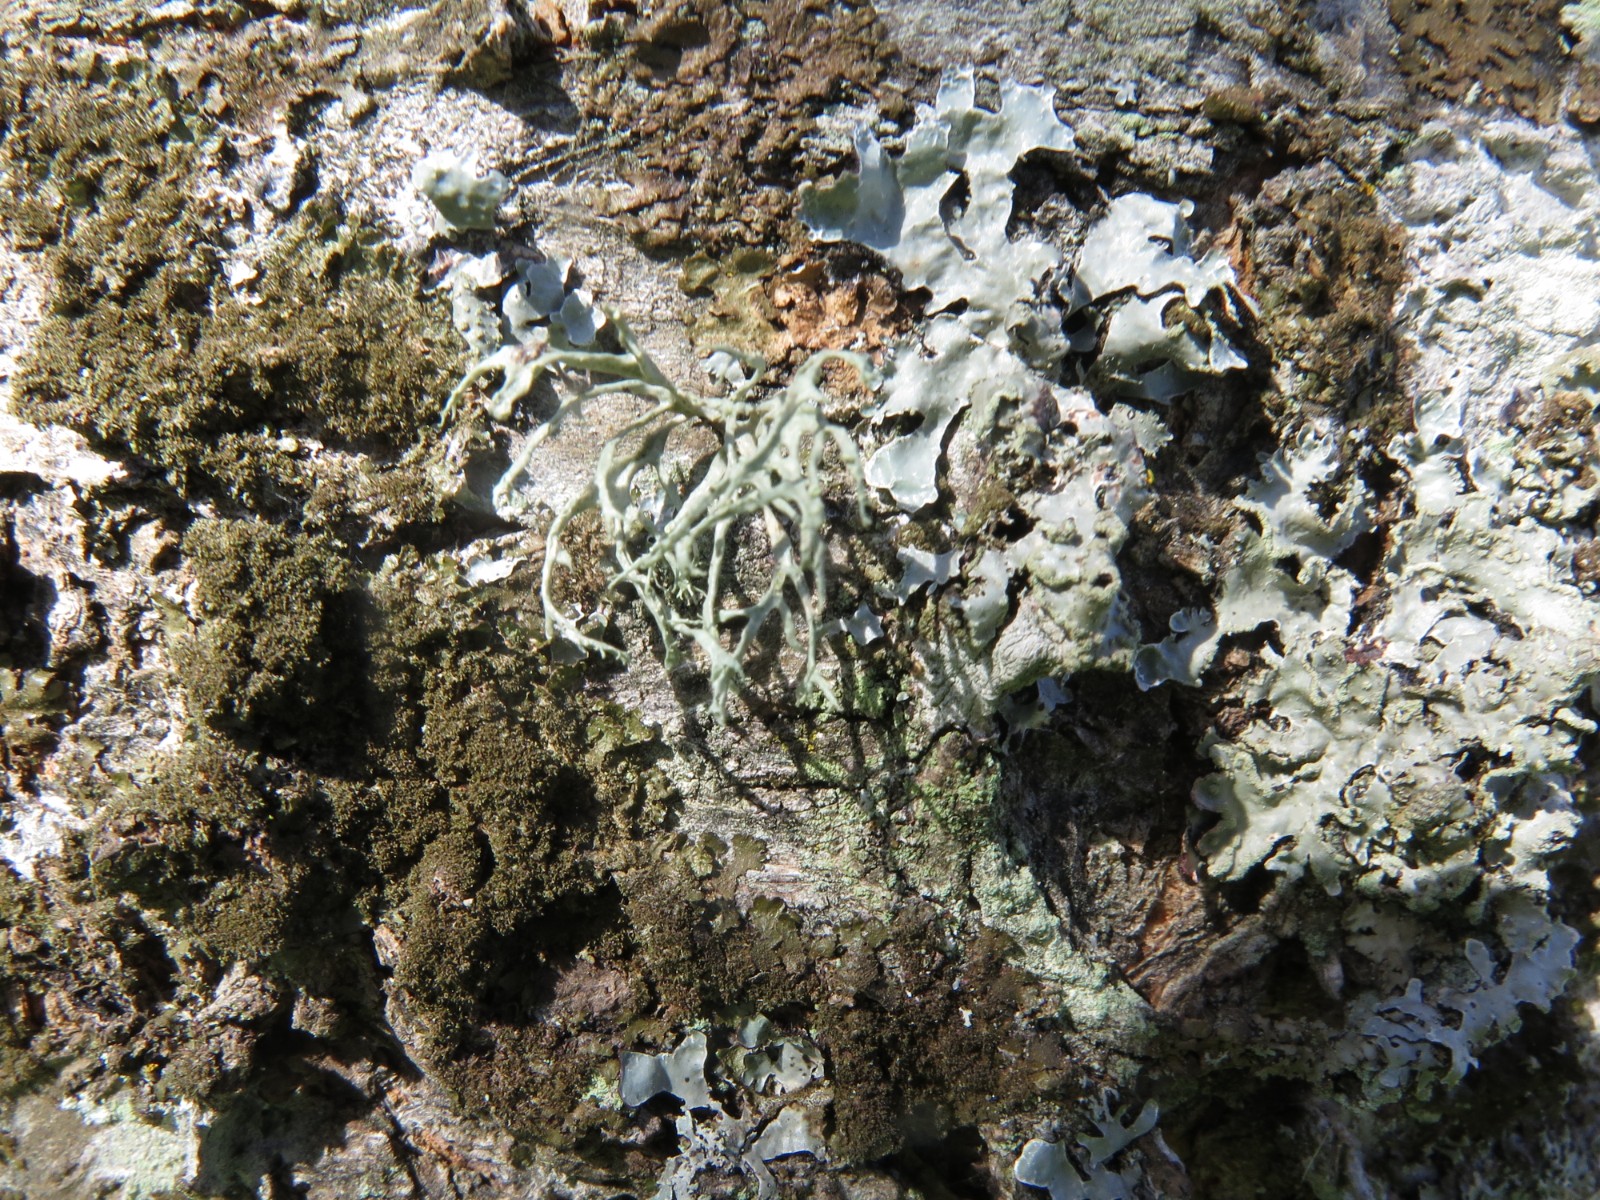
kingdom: Fungi
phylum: Ascomycota
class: Lecanoromycetes
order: Lecanorales
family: Parmeliaceae
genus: Evernia
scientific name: Evernia prunastri
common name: almindelig slåenlav
